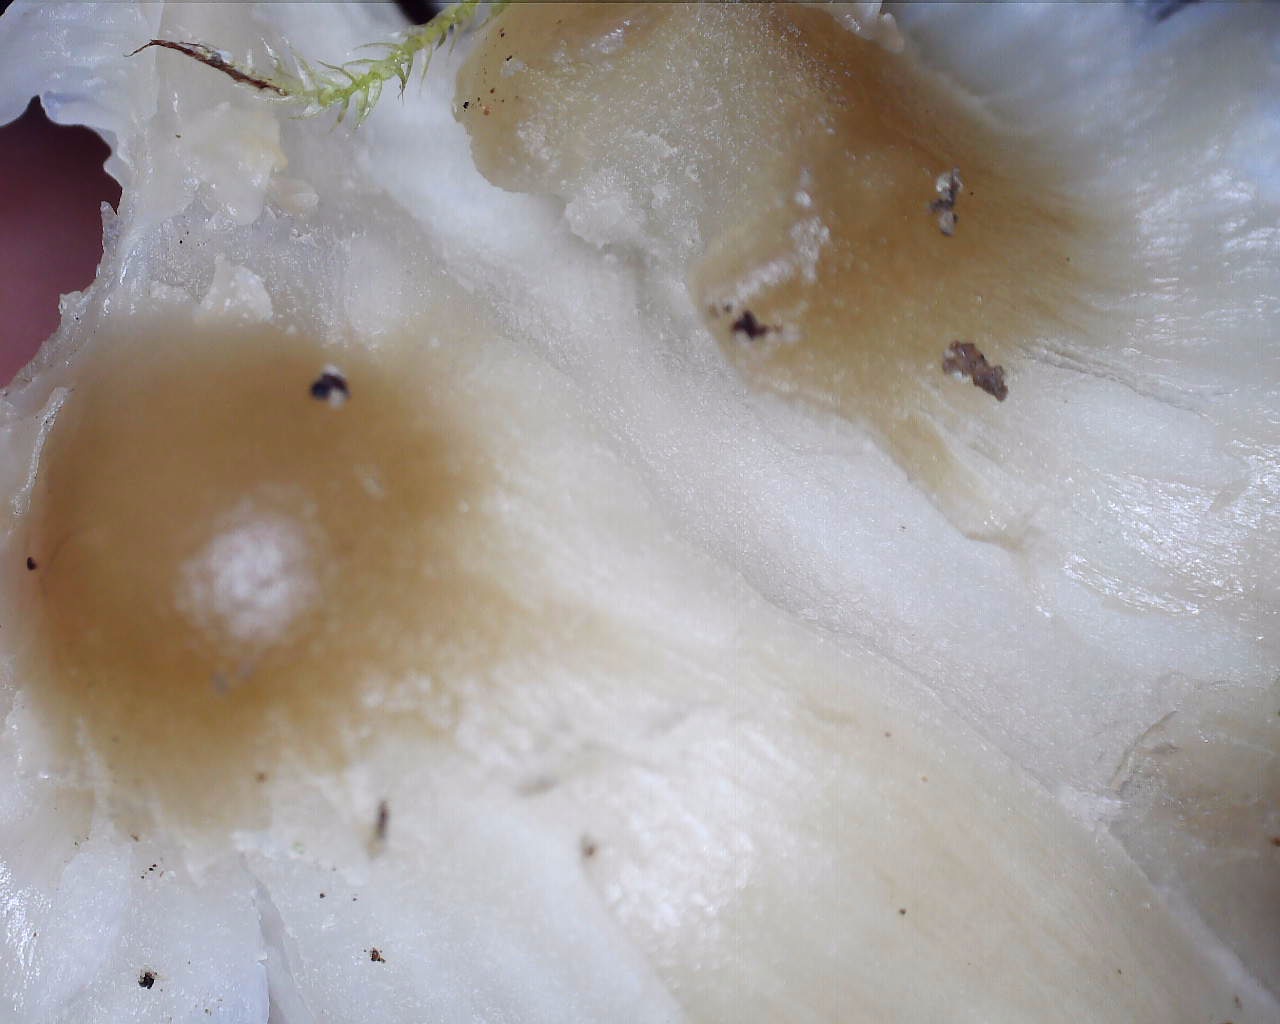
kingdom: Fungi
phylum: Basidiomycota
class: Agaricomycetes
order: Agaricales
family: Hygrophoraceae
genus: Cuphophyllus
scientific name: Cuphophyllus pratensis
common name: eng-vokshat
